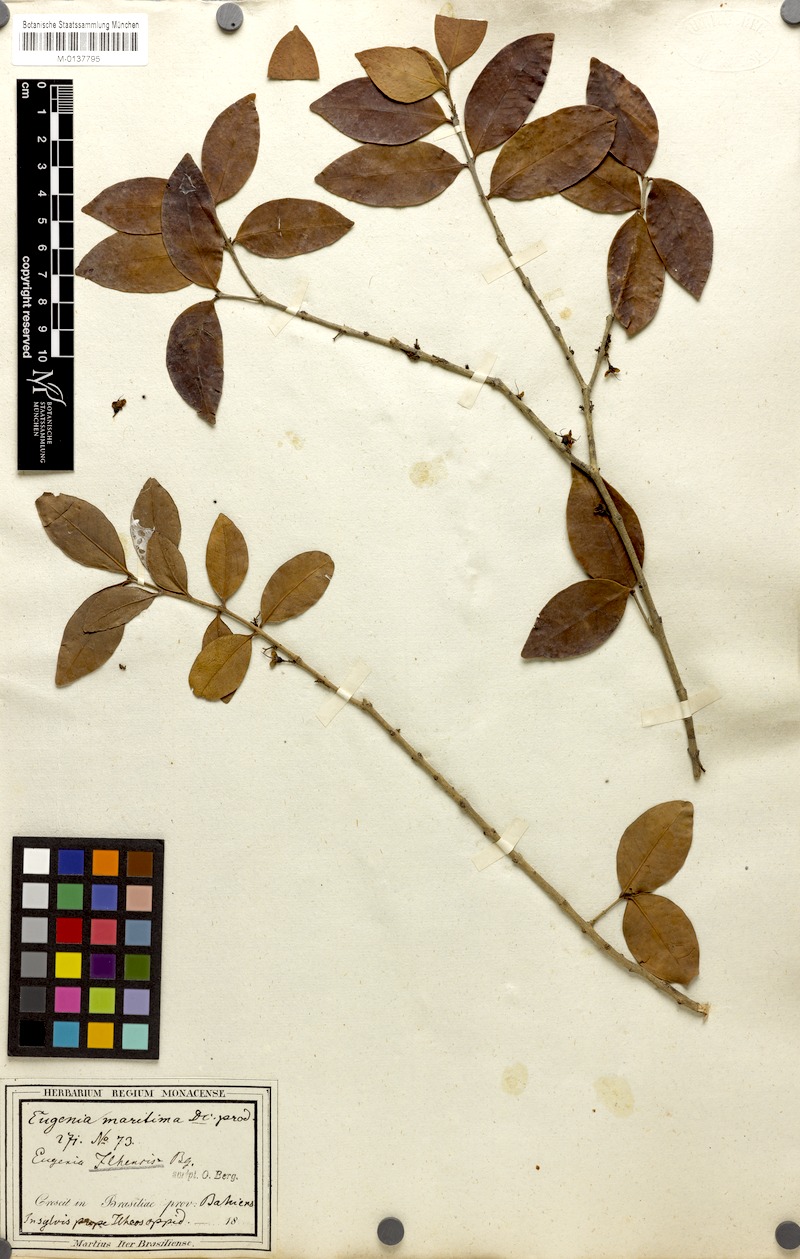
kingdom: Plantae
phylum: Tracheophyta
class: Magnoliopsida
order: Myrtales
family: Myrtaceae
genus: Eugenia
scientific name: Eugenia maritima
